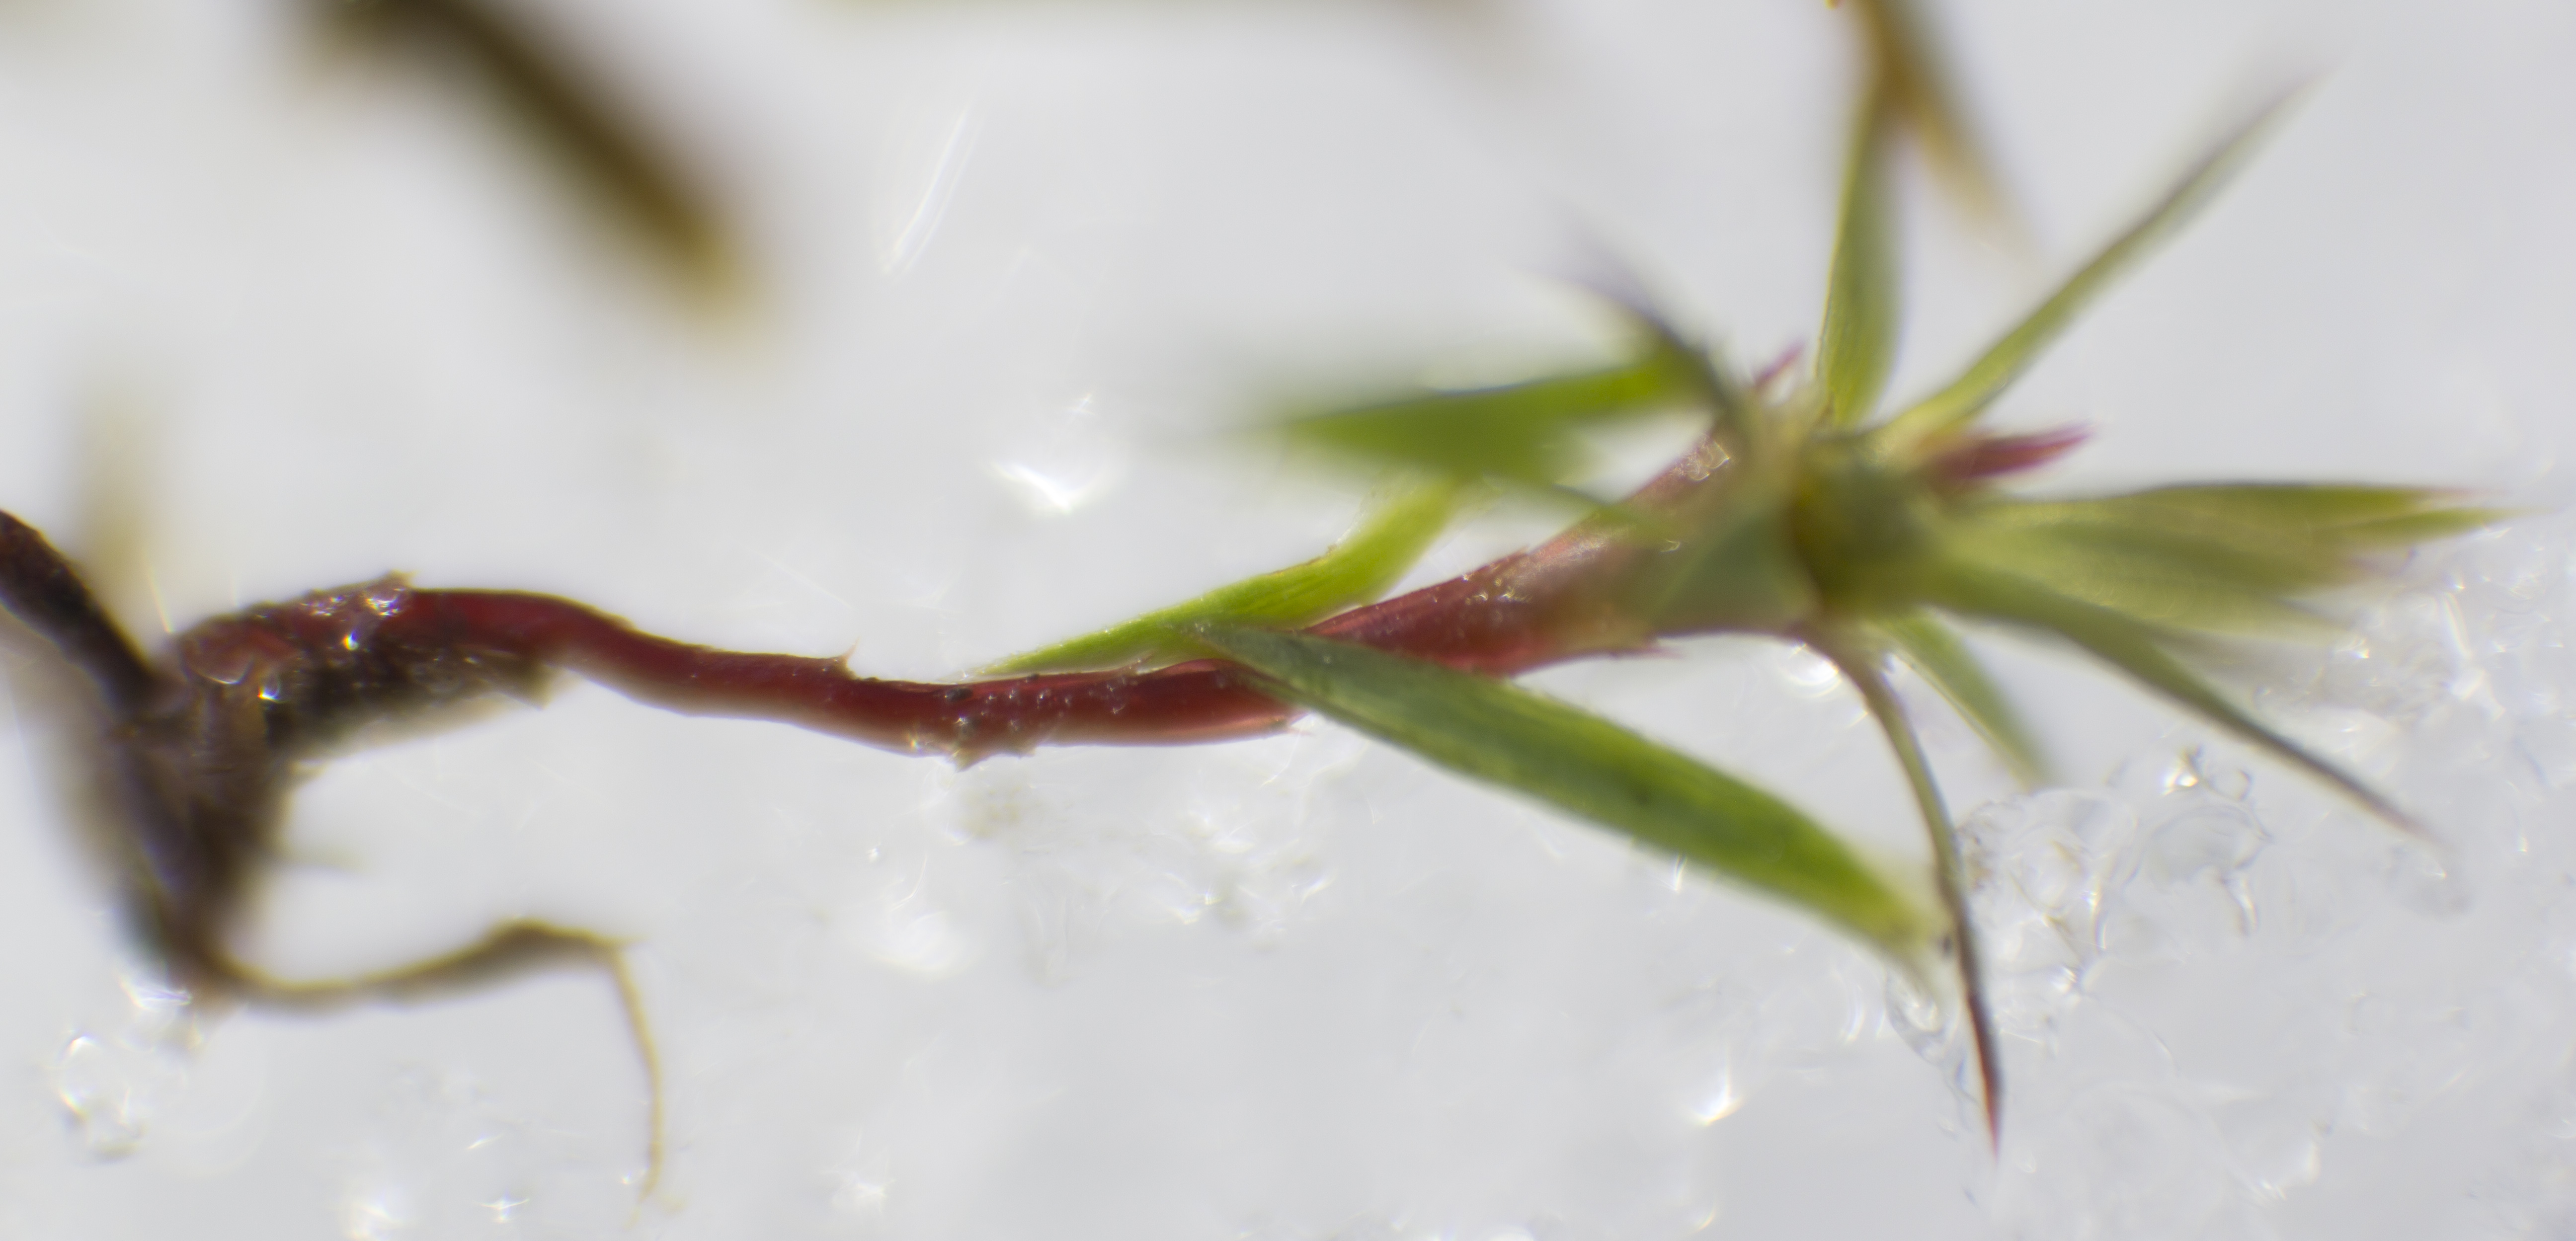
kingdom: Plantae
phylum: Bryophyta
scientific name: Bryophyta
